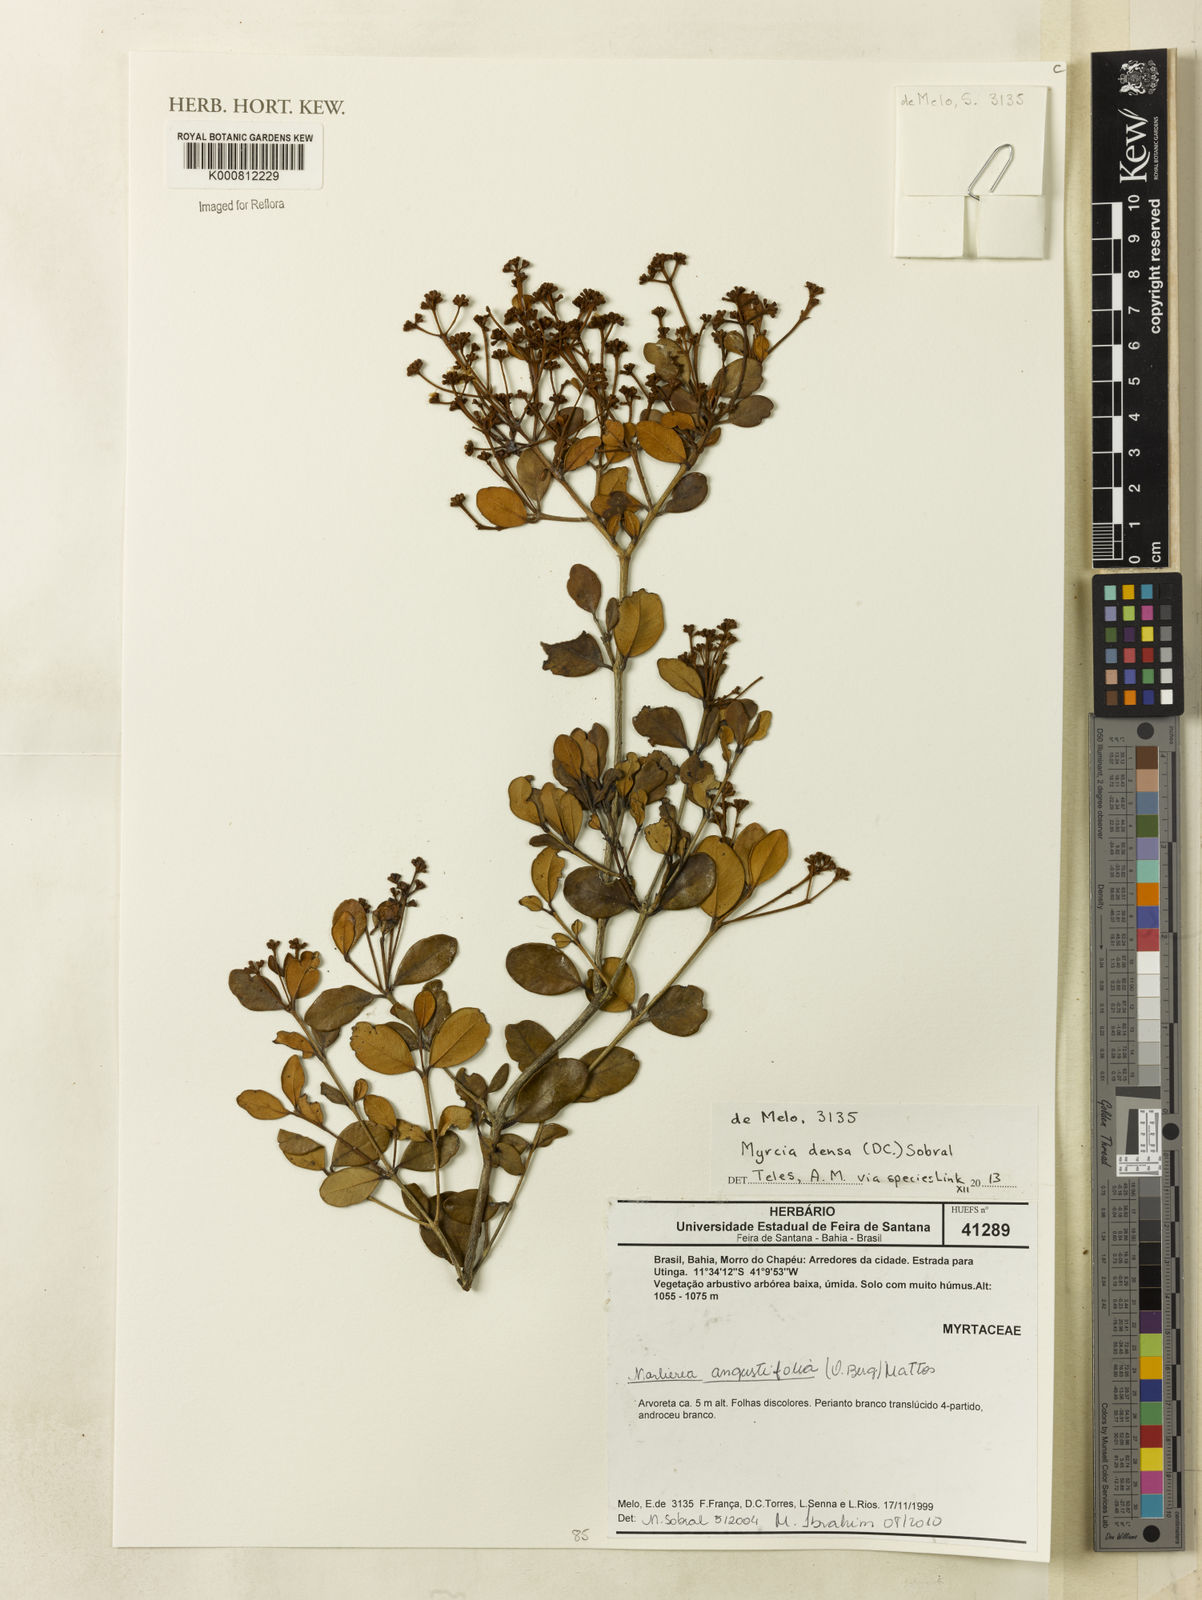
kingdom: Plantae
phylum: Tracheophyta
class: Magnoliopsida
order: Myrtales
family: Myrtaceae
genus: Myrcia
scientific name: Myrcia densa
